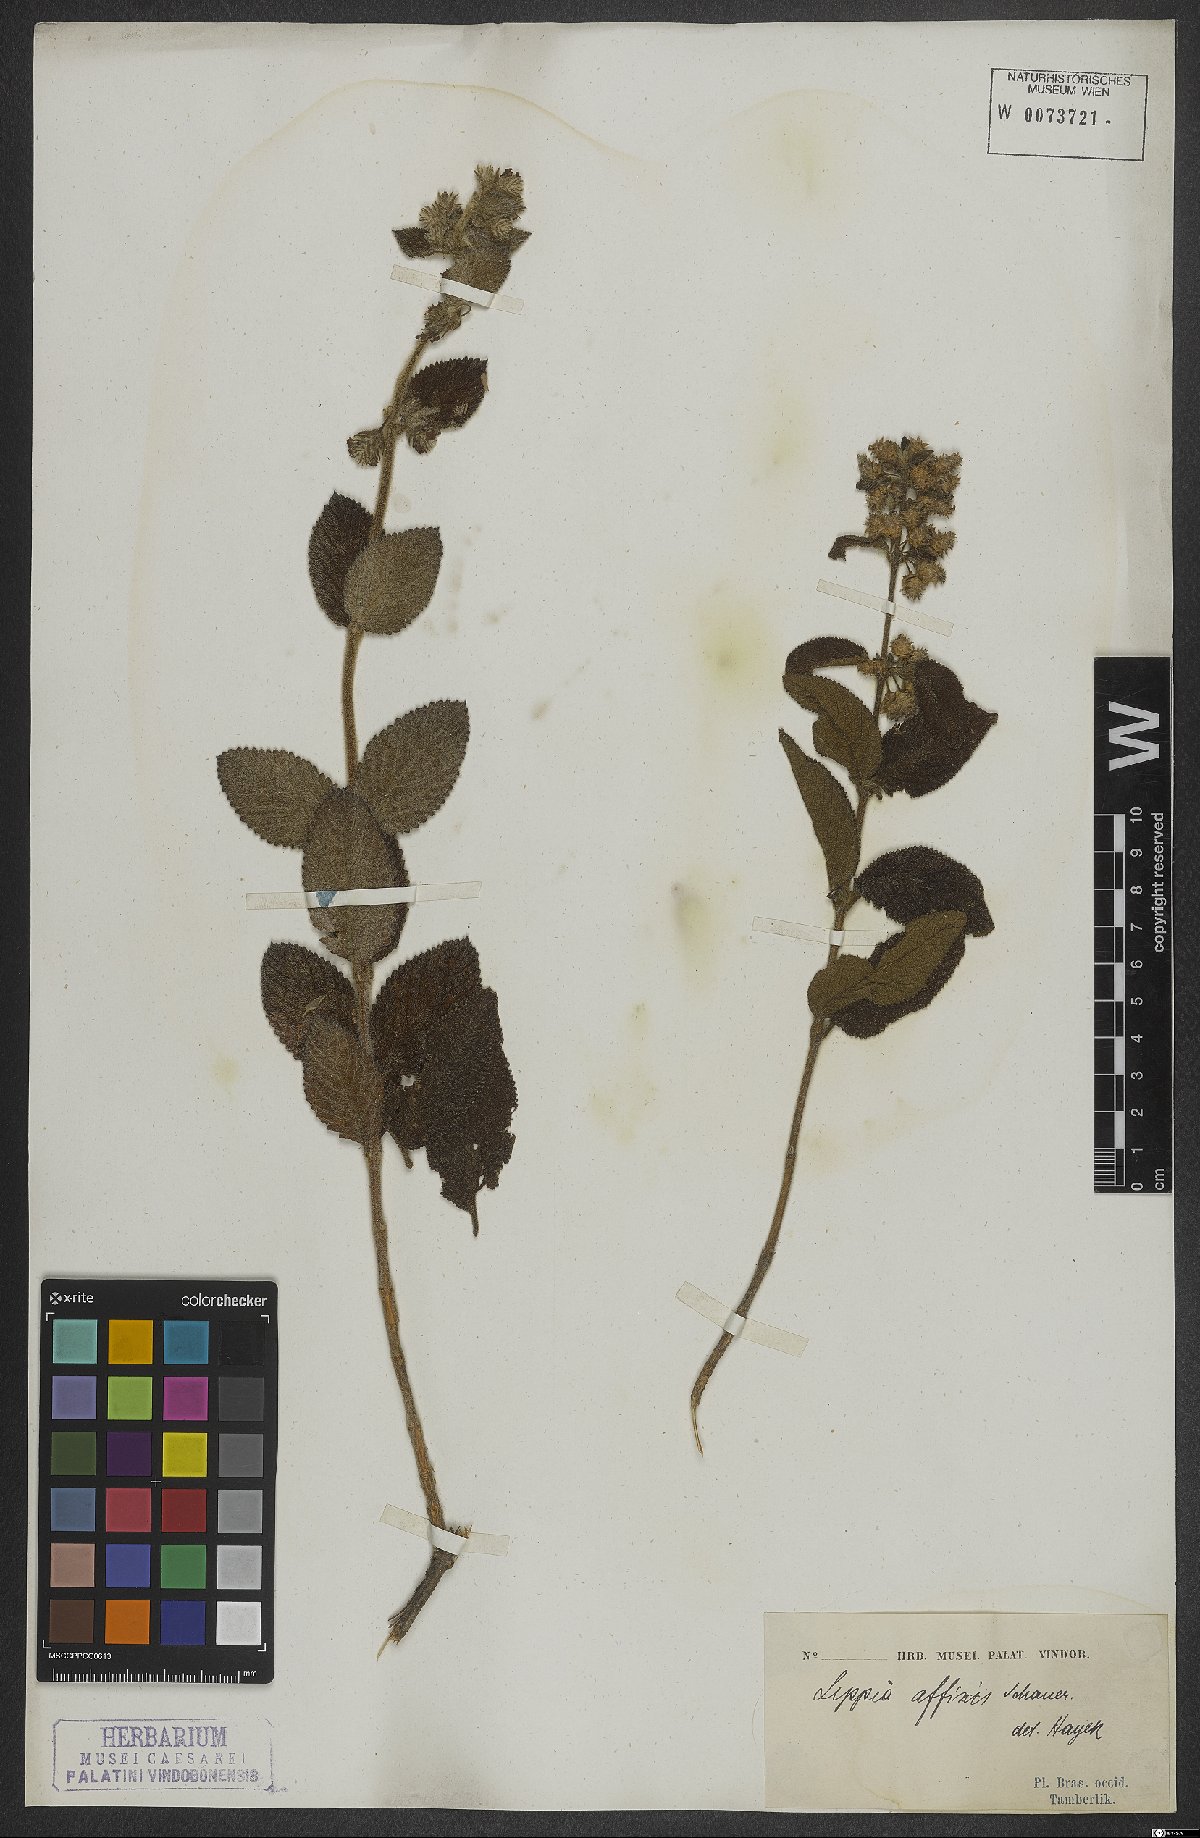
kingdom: Plantae
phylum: Tracheophyta
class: Magnoliopsida
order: Lamiales
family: Verbenaceae
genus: Lippia
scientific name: Lippia origanoides
